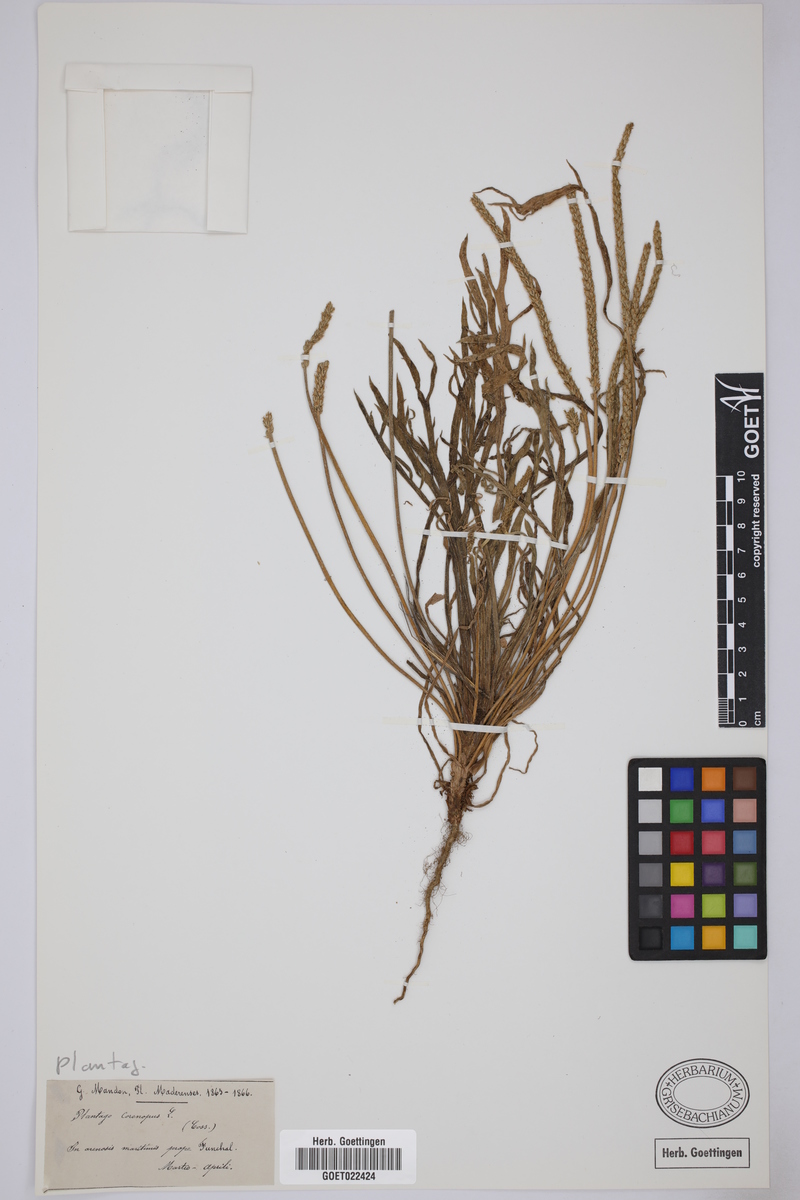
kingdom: Plantae
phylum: Tracheophyta
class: Magnoliopsida
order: Lamiales
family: Plantaginaceae
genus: Plantago
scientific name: Plantago coronopus
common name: Buck's-horn plantain
